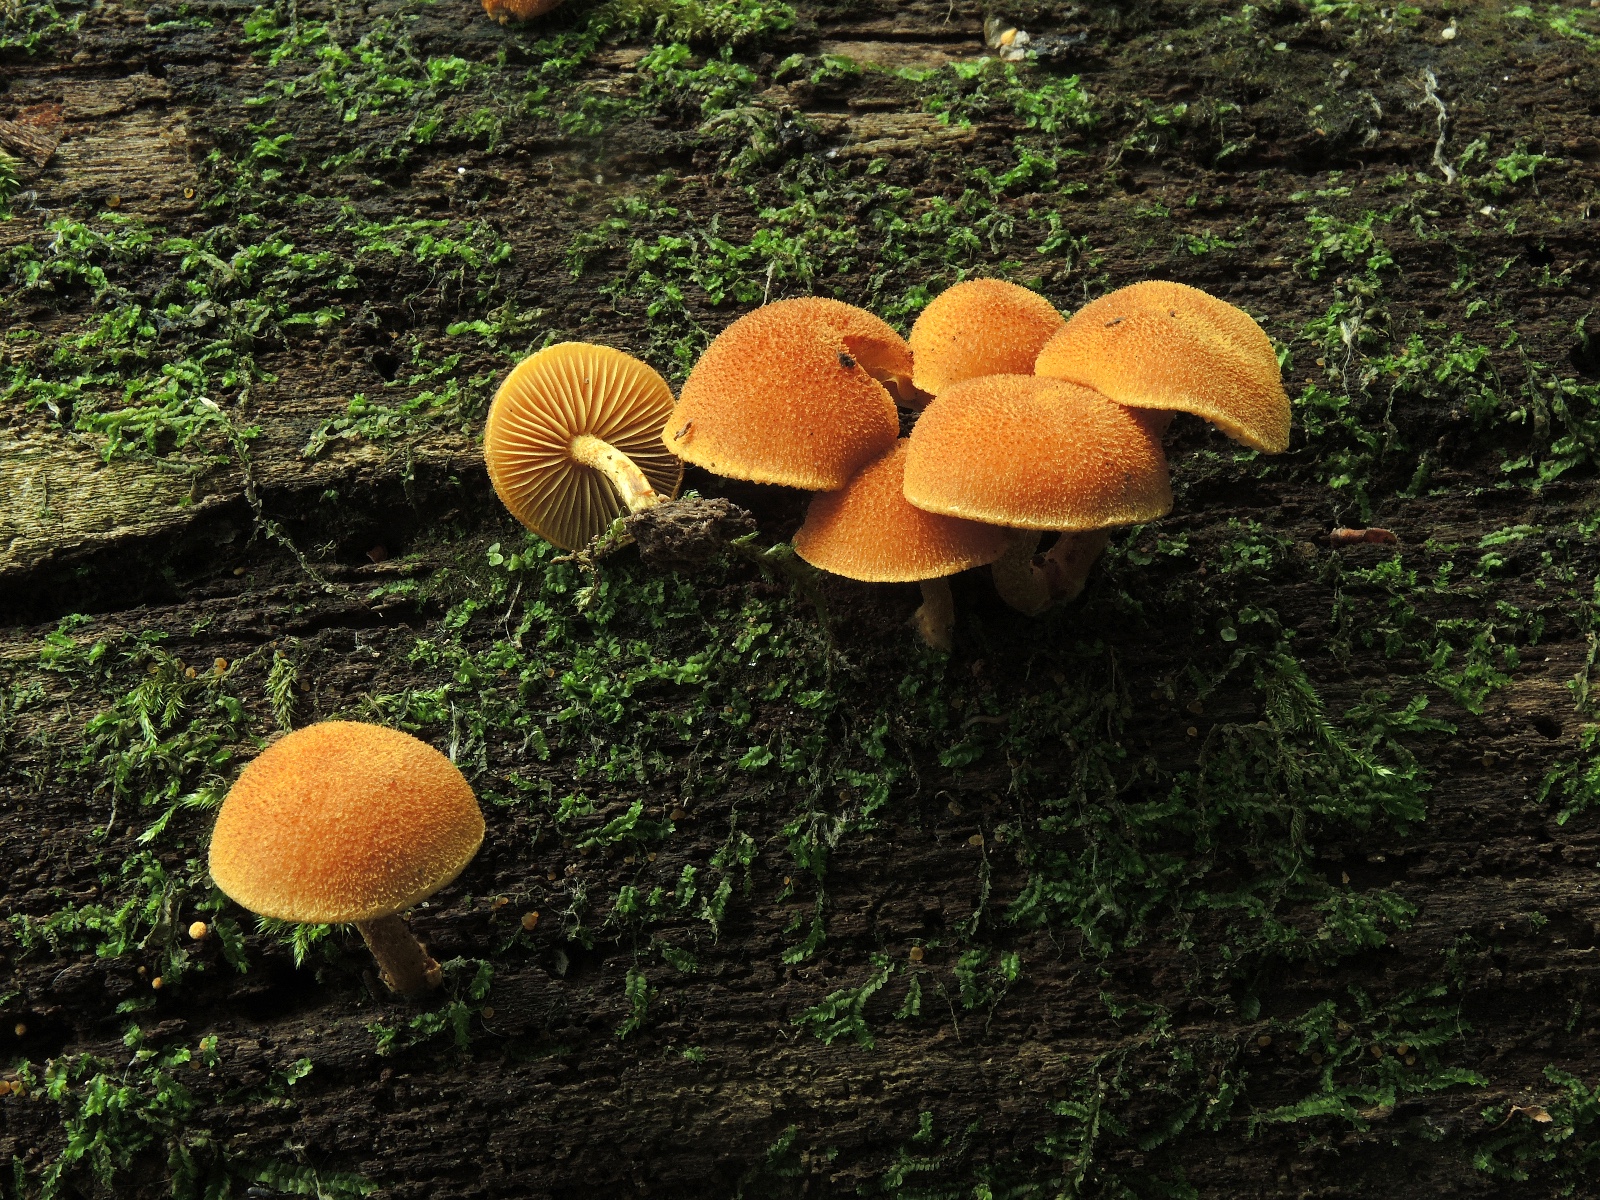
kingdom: Fungi
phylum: Basidiomycota
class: Agaricomycetes
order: Agaricales
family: Tubariaceae
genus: Flammulaster
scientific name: Flammulaster limulatus
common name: gylden grynskælhat
